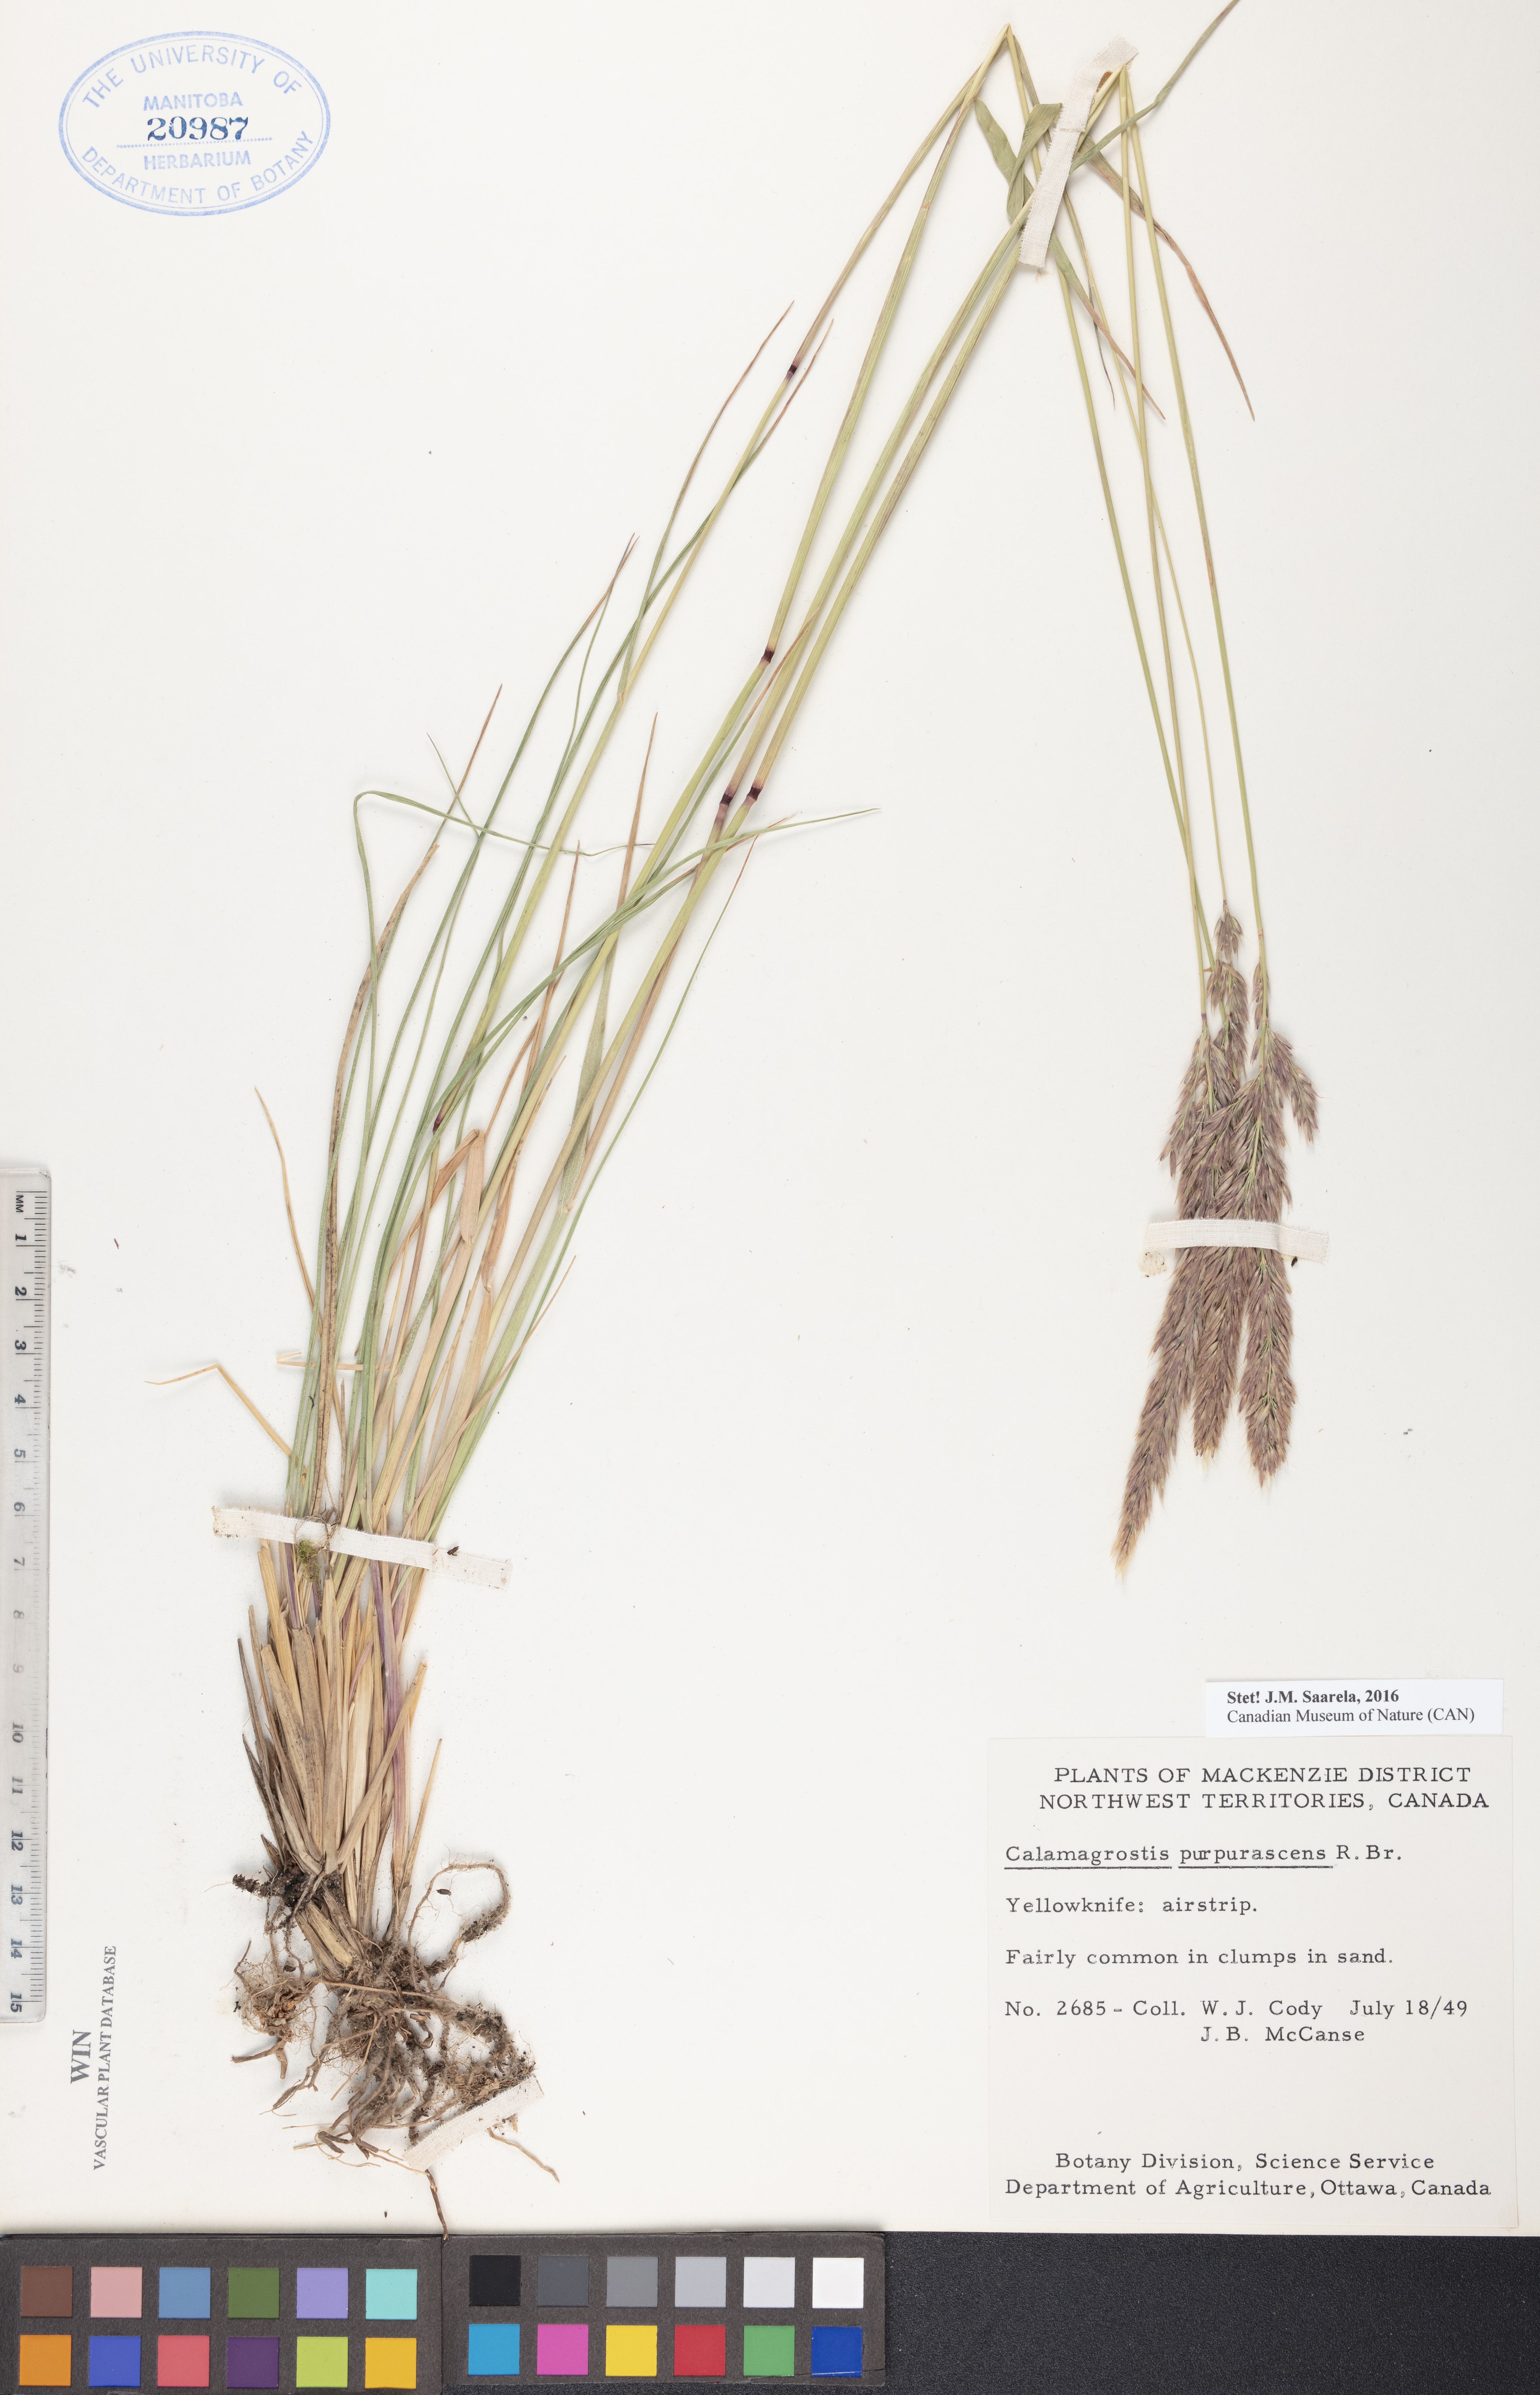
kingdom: Plantae
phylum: Tracheophyta
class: Liliopsida
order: Poales
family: Poaceae
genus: Calamagrostis
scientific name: Calamagrostis purpurascens
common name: Purple reedgrass
